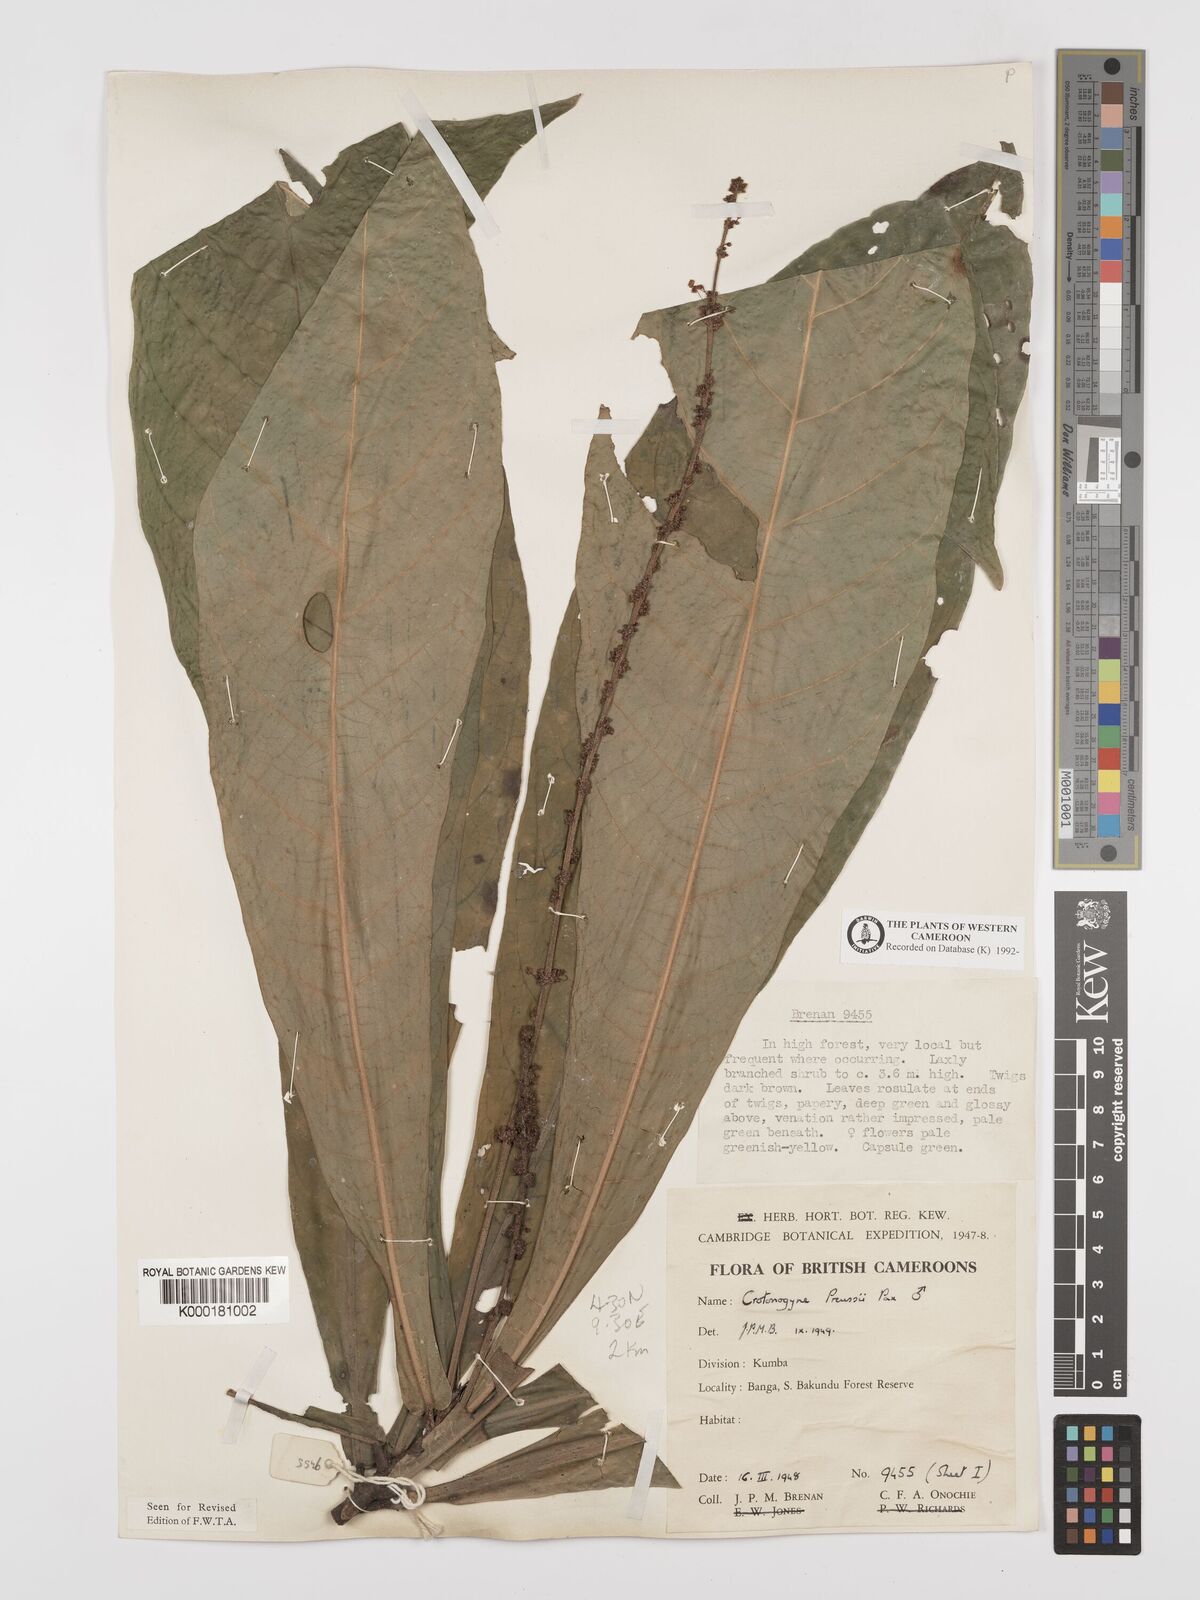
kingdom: Plantae
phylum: Tracheophyta
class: Magnoliopsida
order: Malpighiales
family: Euphorbiaceae
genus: Crotonogyne
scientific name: Crotonogyne preussii
